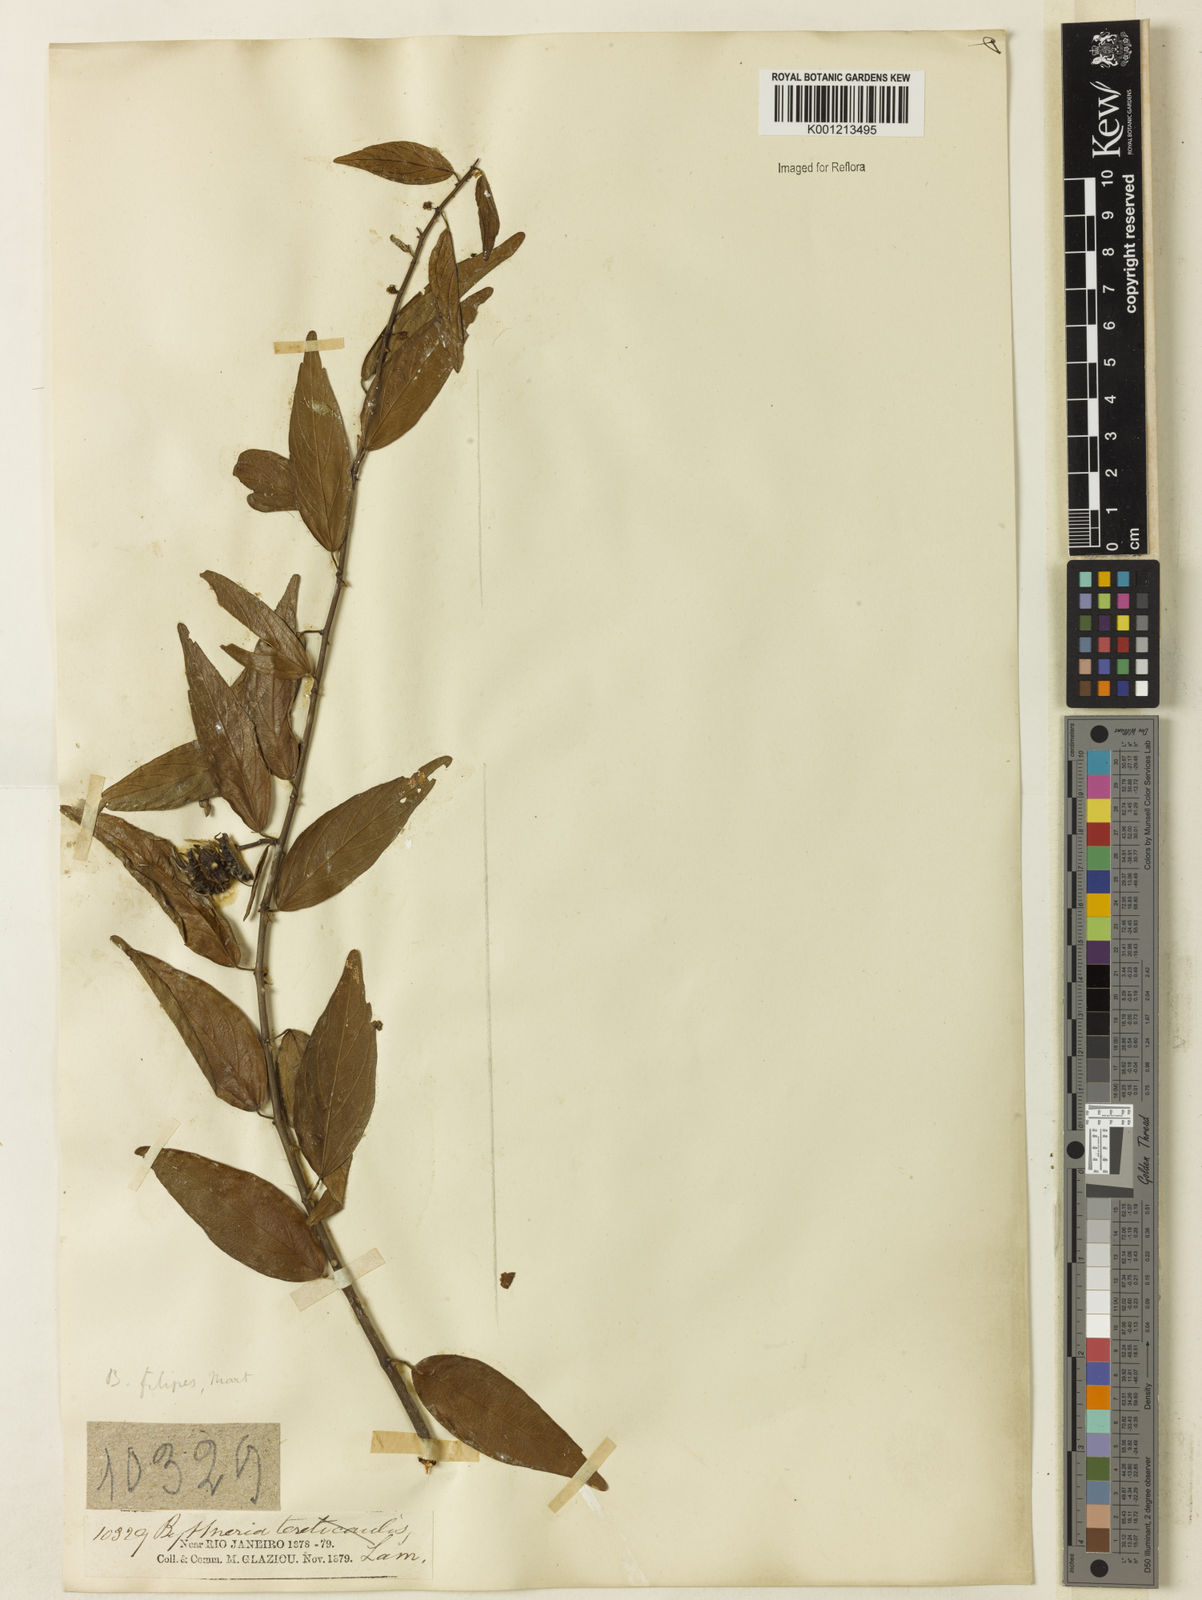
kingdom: Plantae
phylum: Tracheophyta
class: Magnoliopsida
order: Malvales
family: Malvaceae
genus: Byttneria
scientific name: Byttneria filipes
